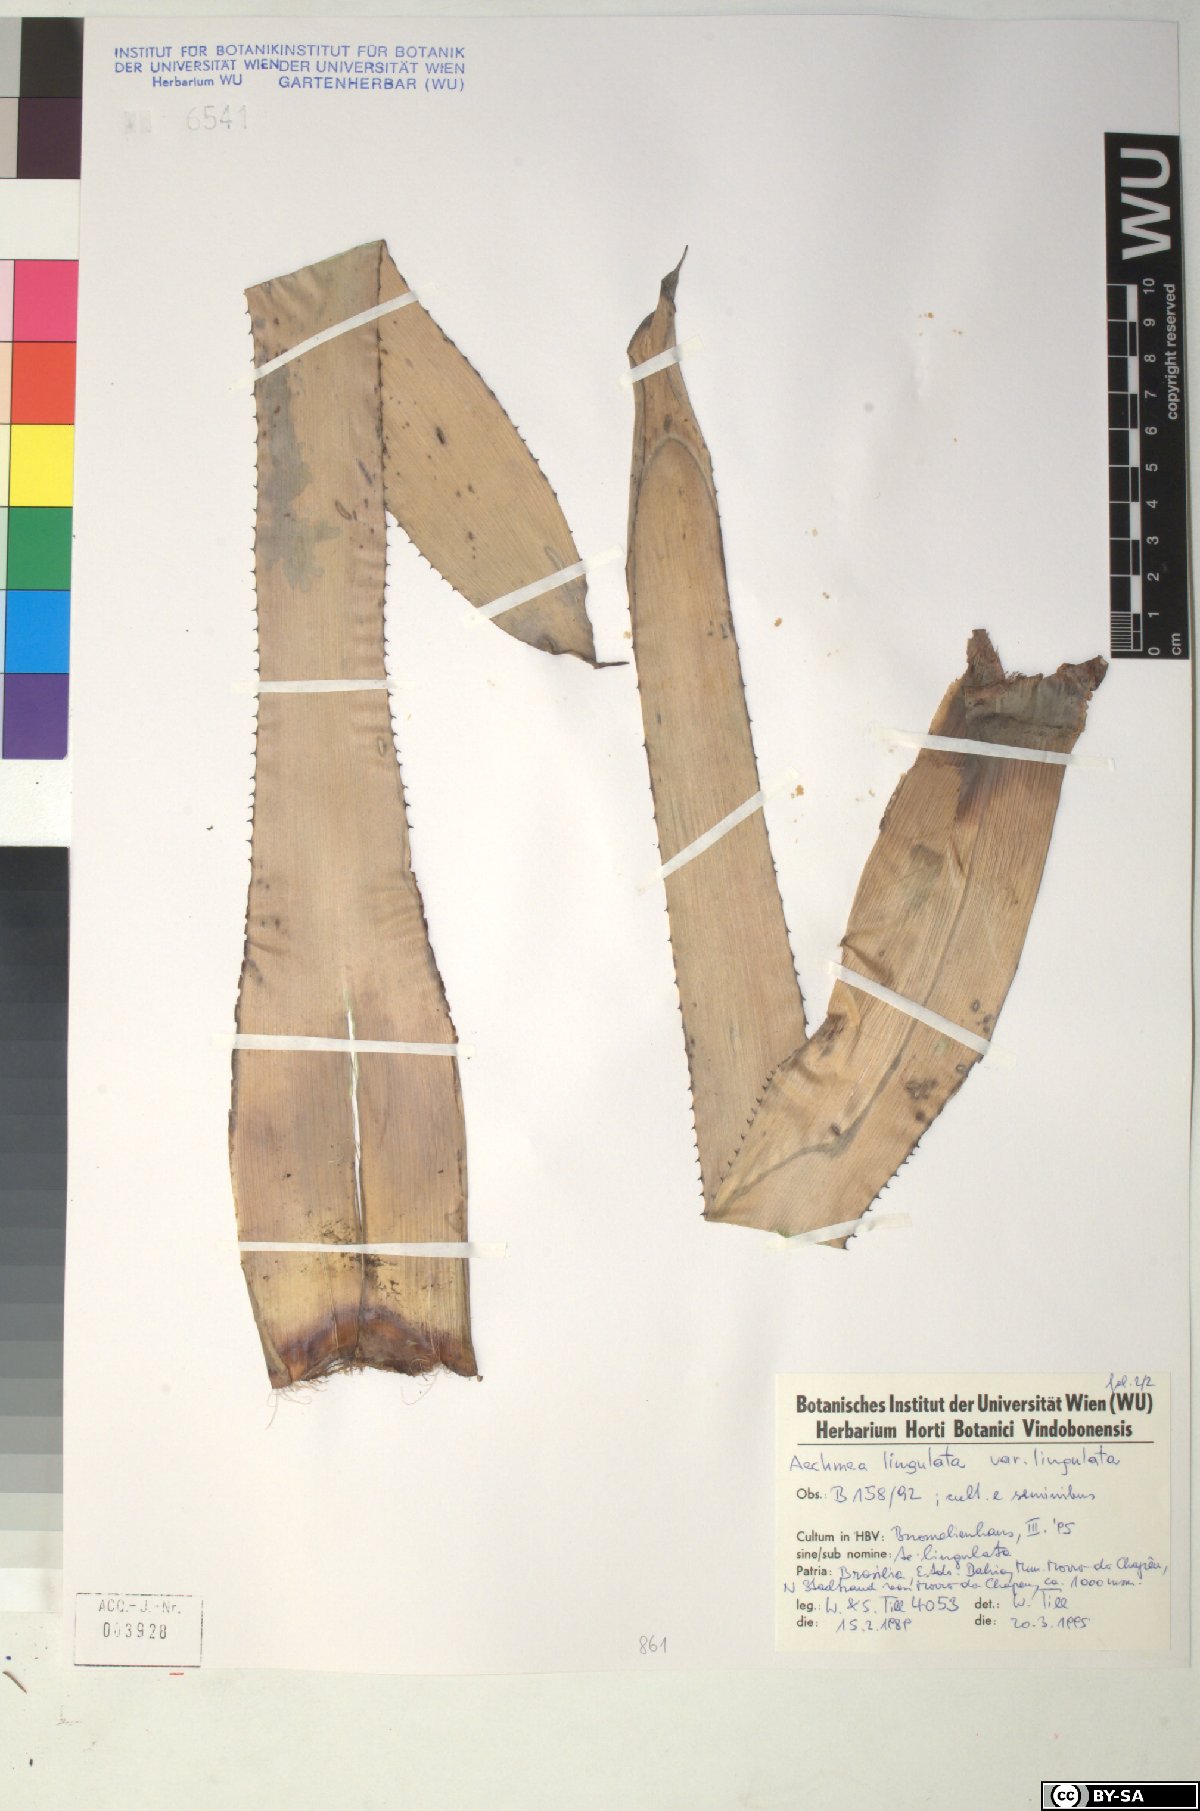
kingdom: Plantae
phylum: Tracheophyta
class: Liliopsida
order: Poales
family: Bromeliaceae
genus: Wittmackia
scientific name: Wittmackia lingulata
